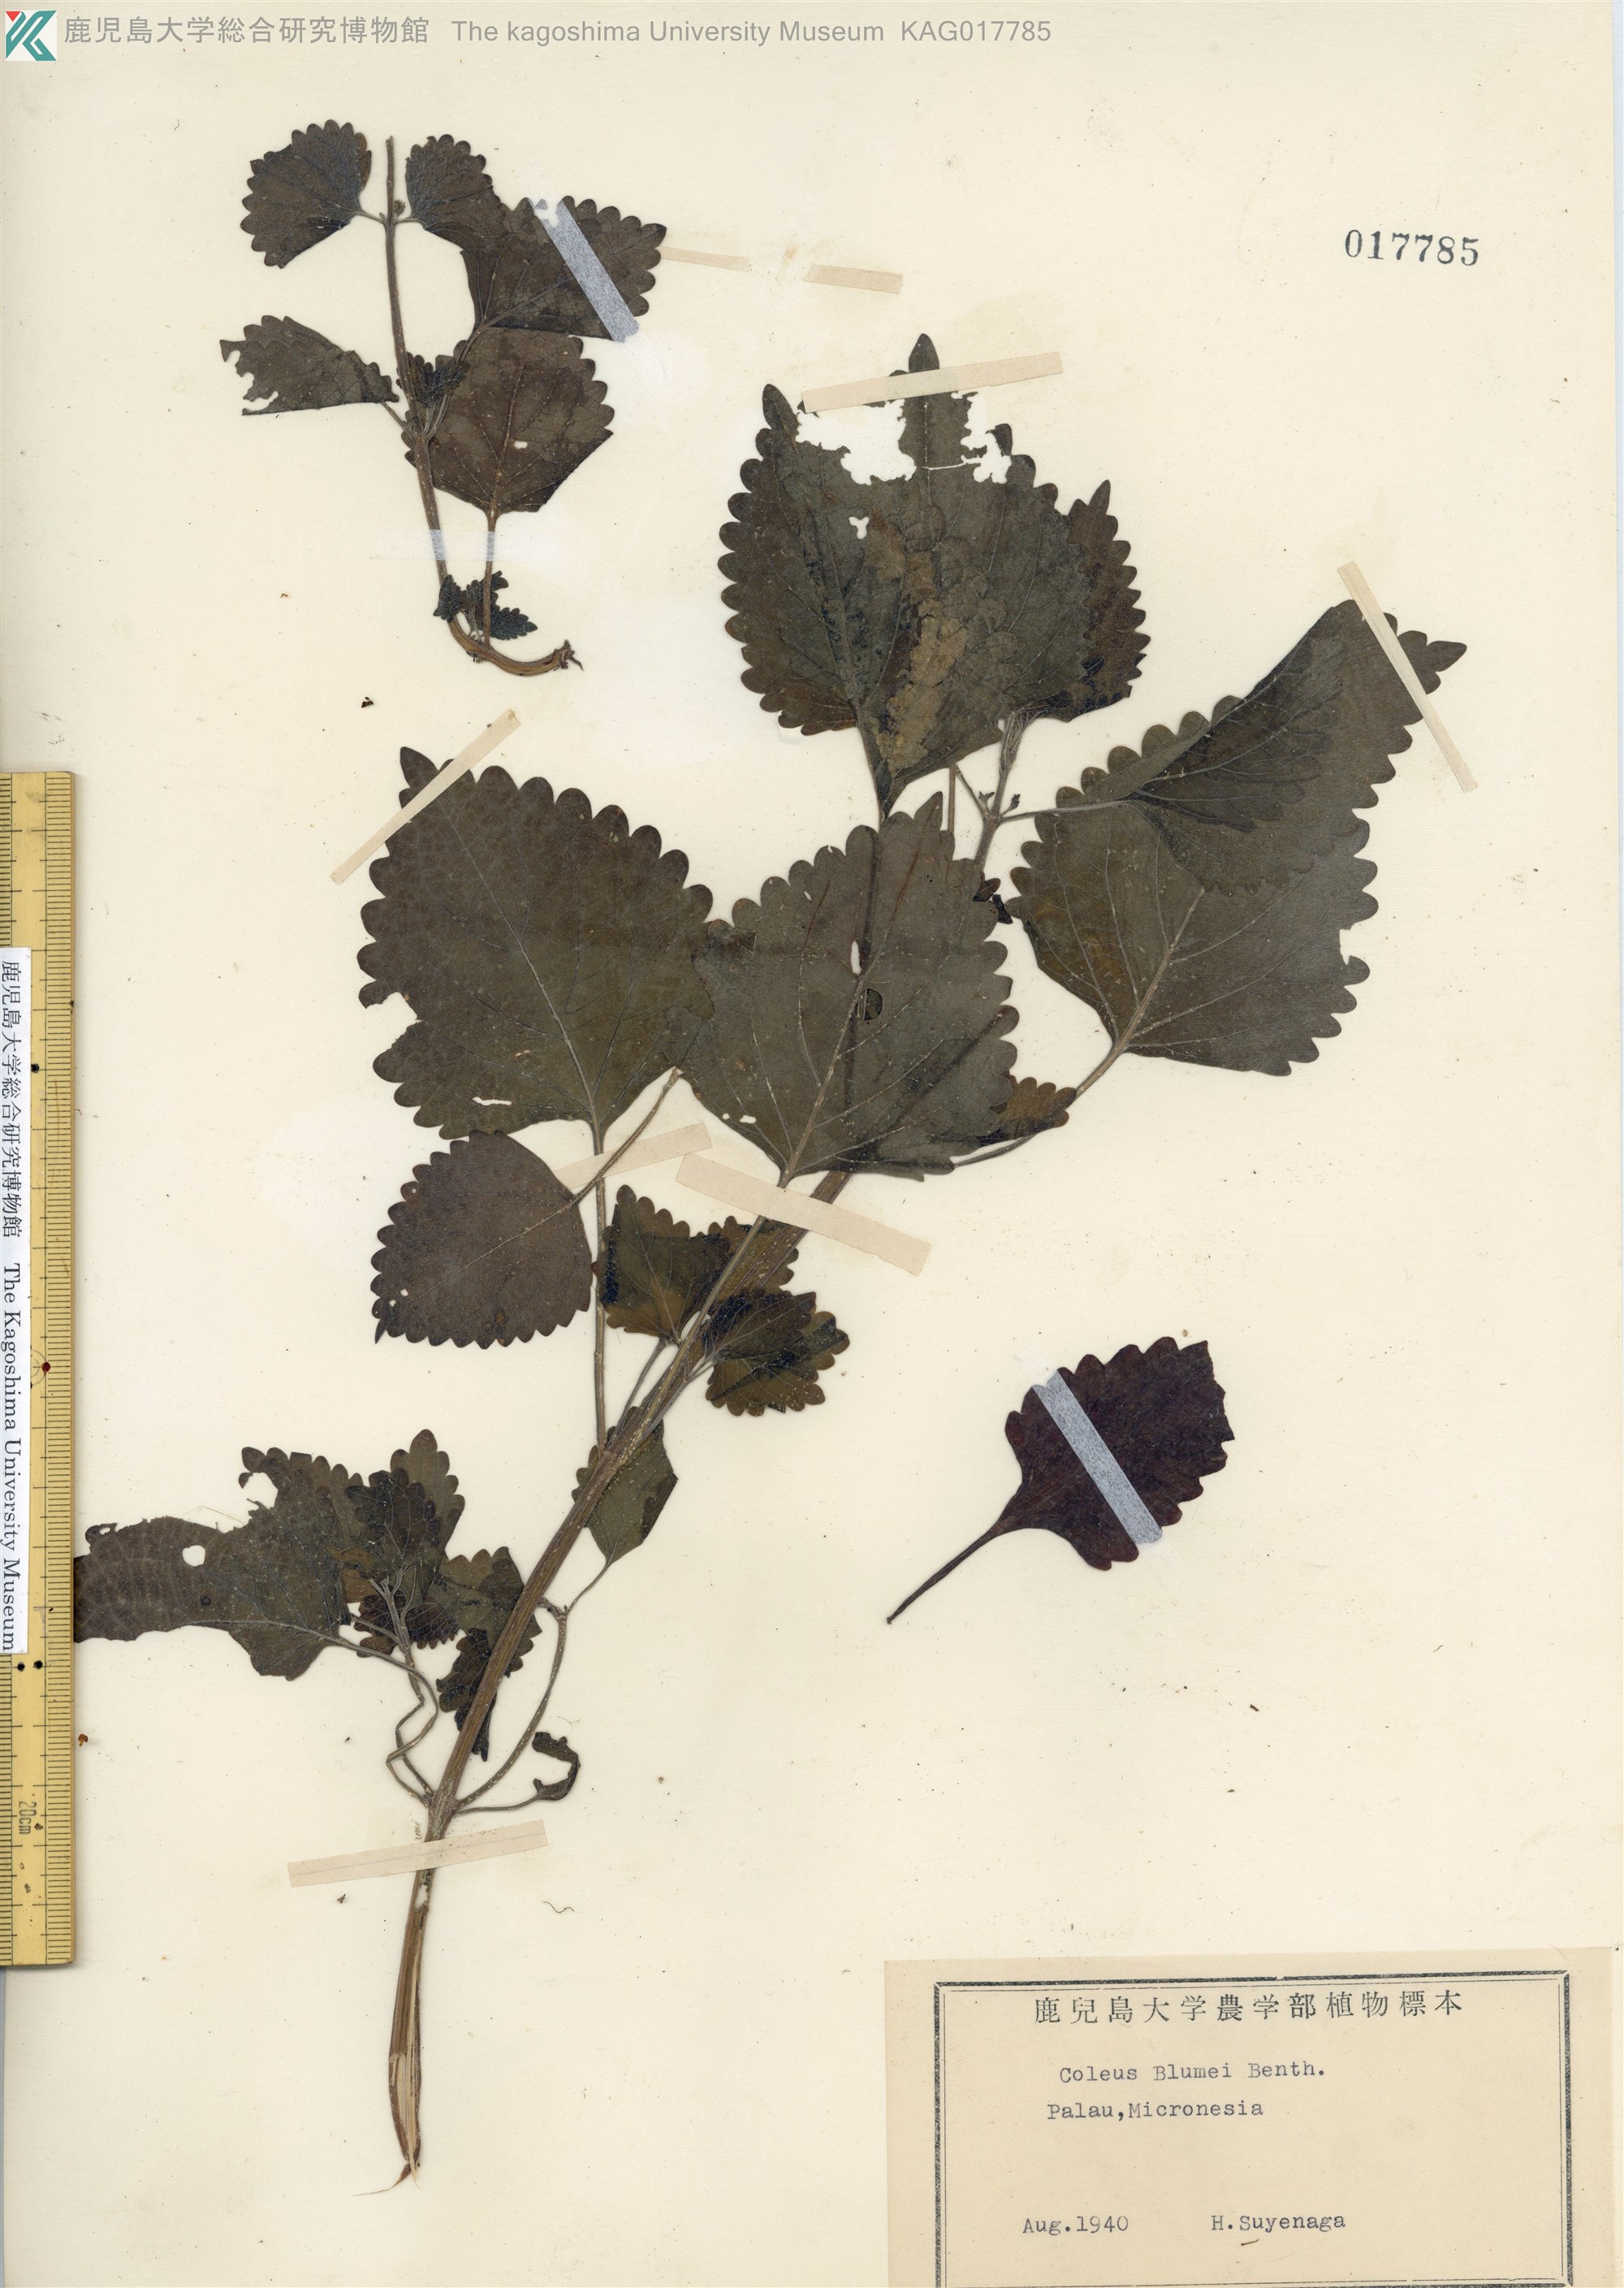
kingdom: Plantae
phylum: Tracheophyta
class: Magnoliopsida
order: Lamiales
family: Lamiaceae
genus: Coleus
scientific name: Coleus scutellarioides
